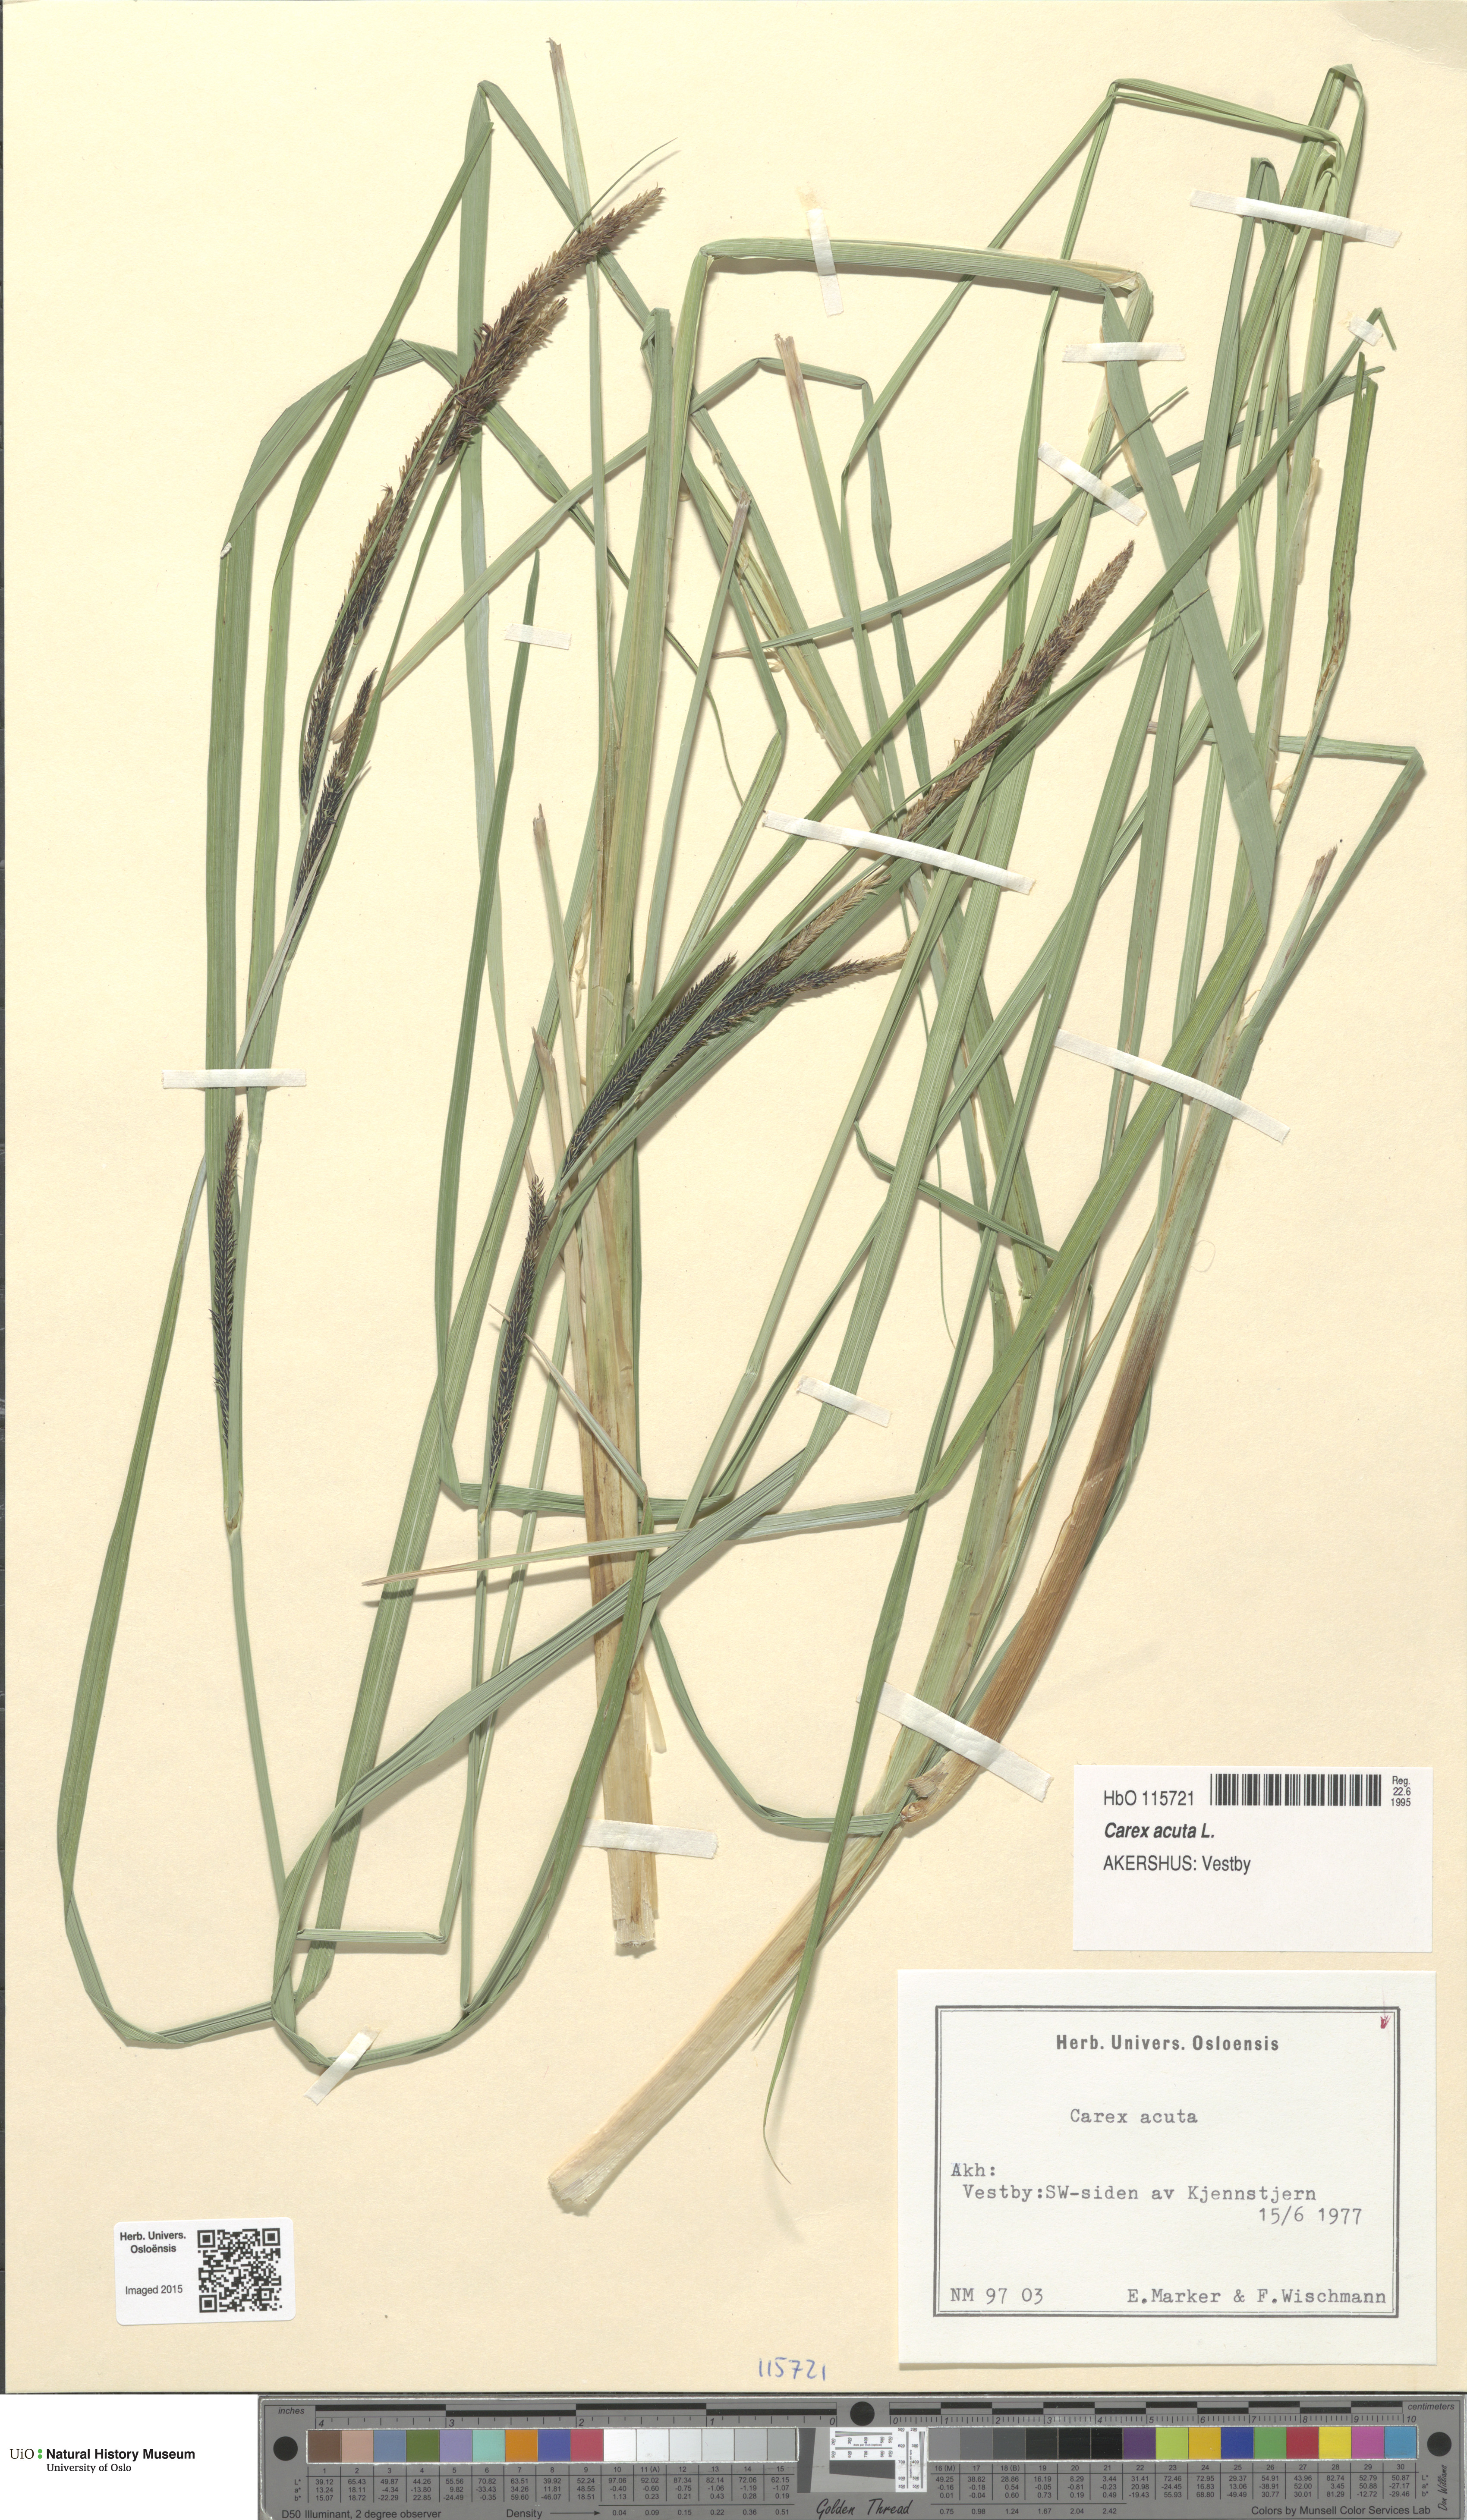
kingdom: Plantae
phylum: Tracheophyta
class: Liliopsida
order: Poales
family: Cyperaceae
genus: Carex
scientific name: Carex acuta
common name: Slender tufted-sedge
